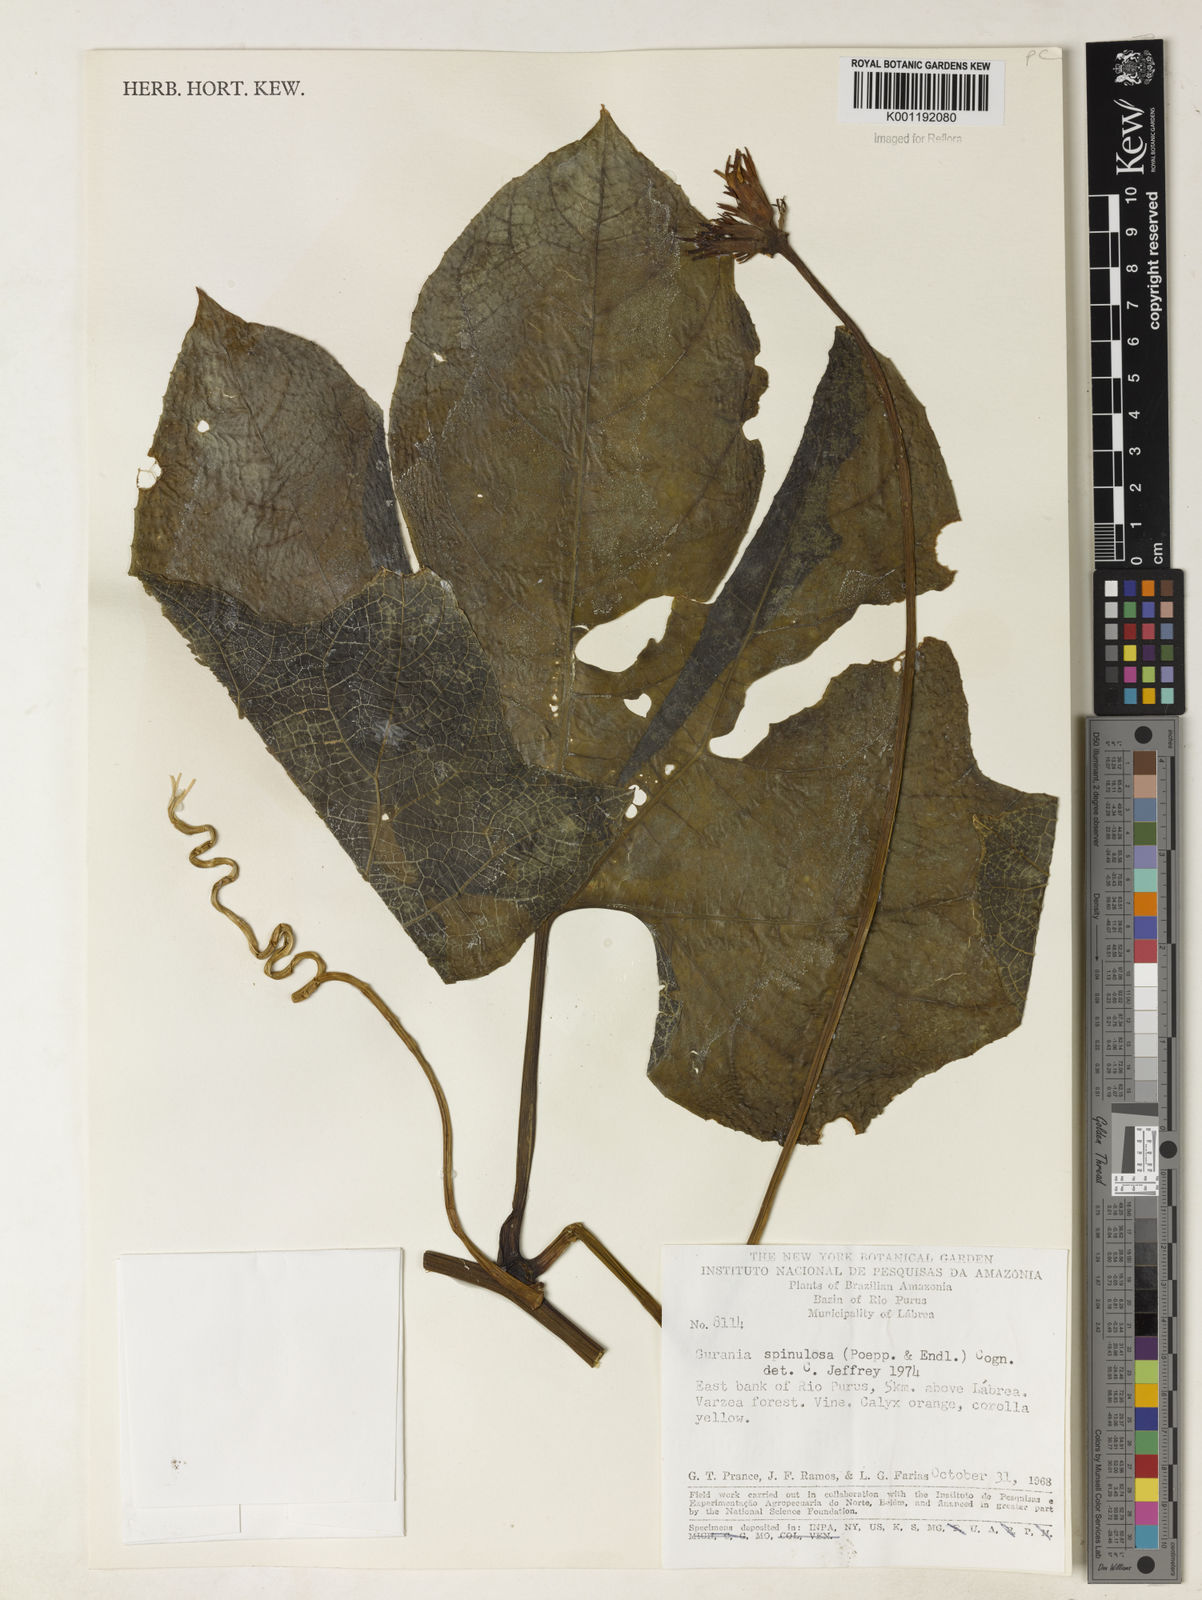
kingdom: Plantae
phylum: Tracheophyta
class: Magnoliopsida
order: Cucurbitales
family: Cucurbitaceae
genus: Gurania
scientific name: Gurania lobata
